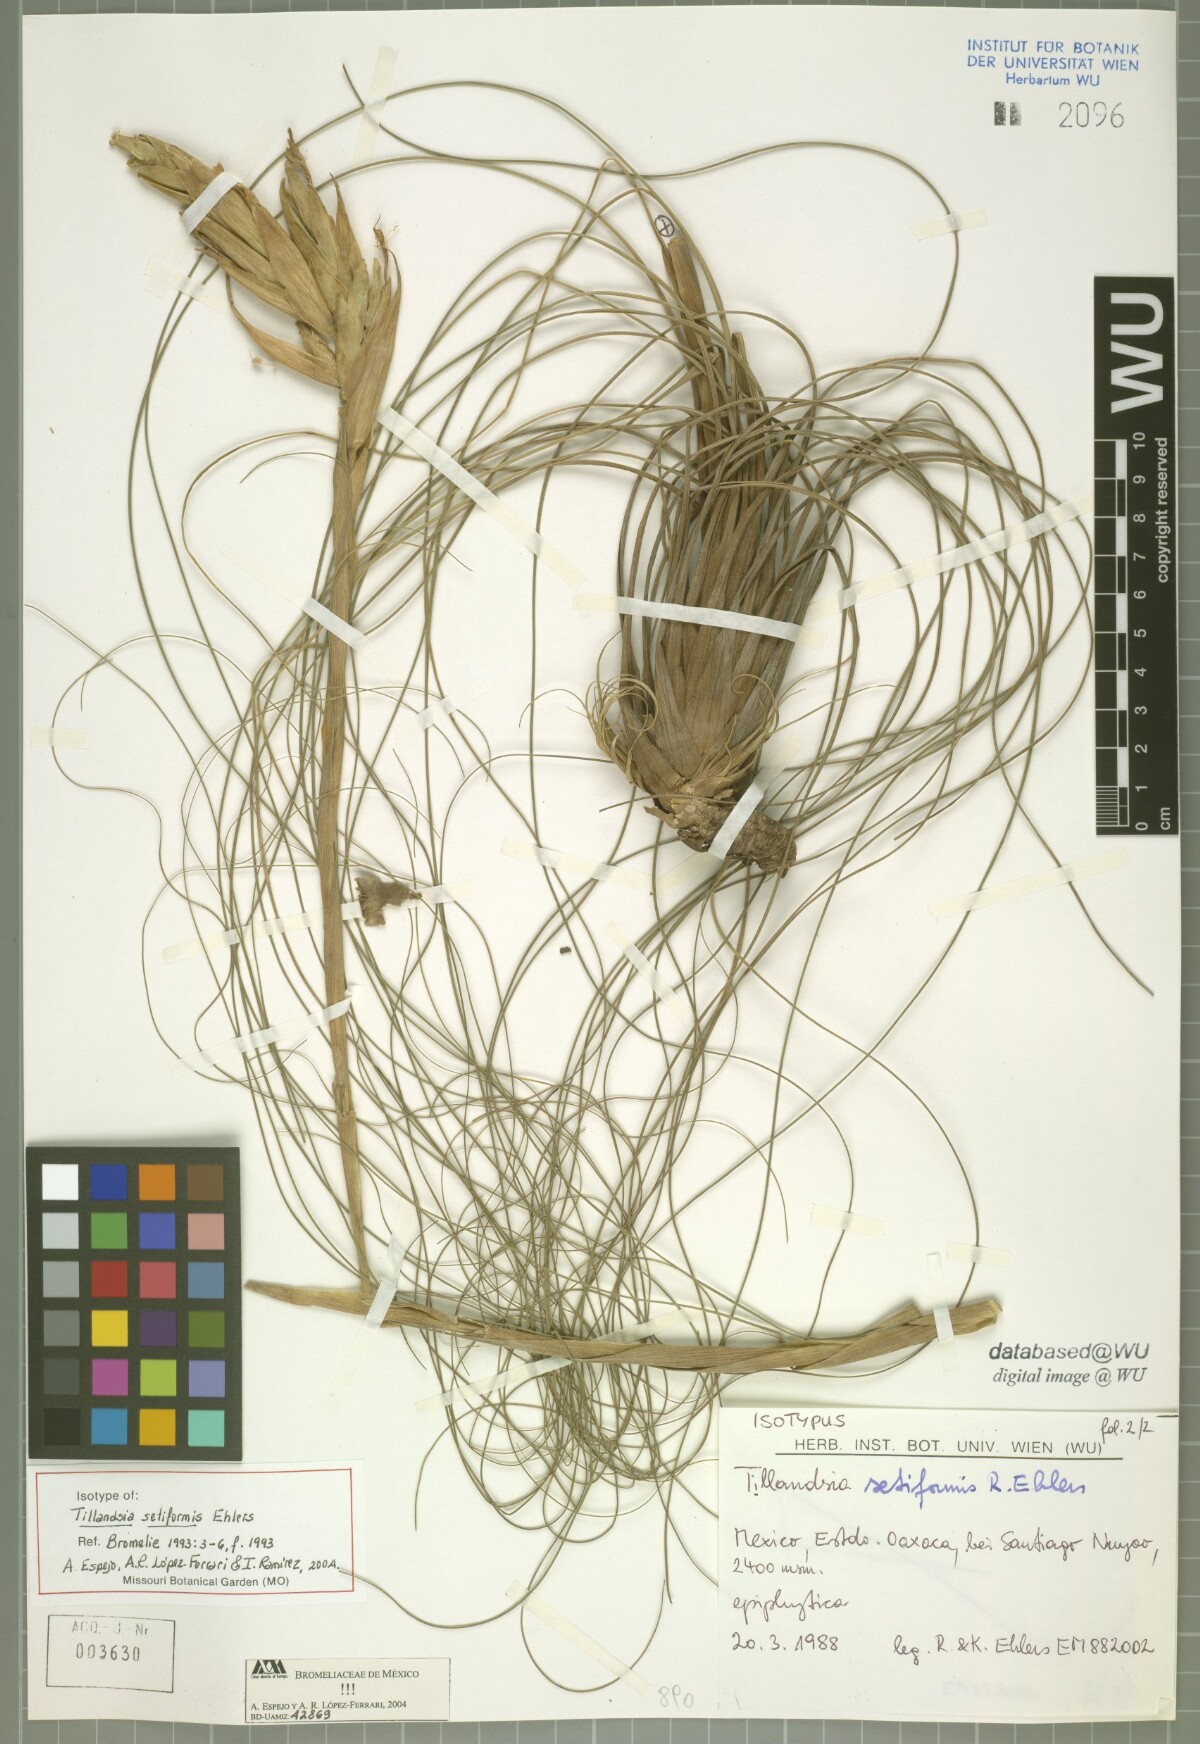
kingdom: Plantae
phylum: Tracheophyta
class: Liliopsida
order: Poales
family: Bromeliaceae
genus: Tillandsia
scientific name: Tillandsia setiformis
